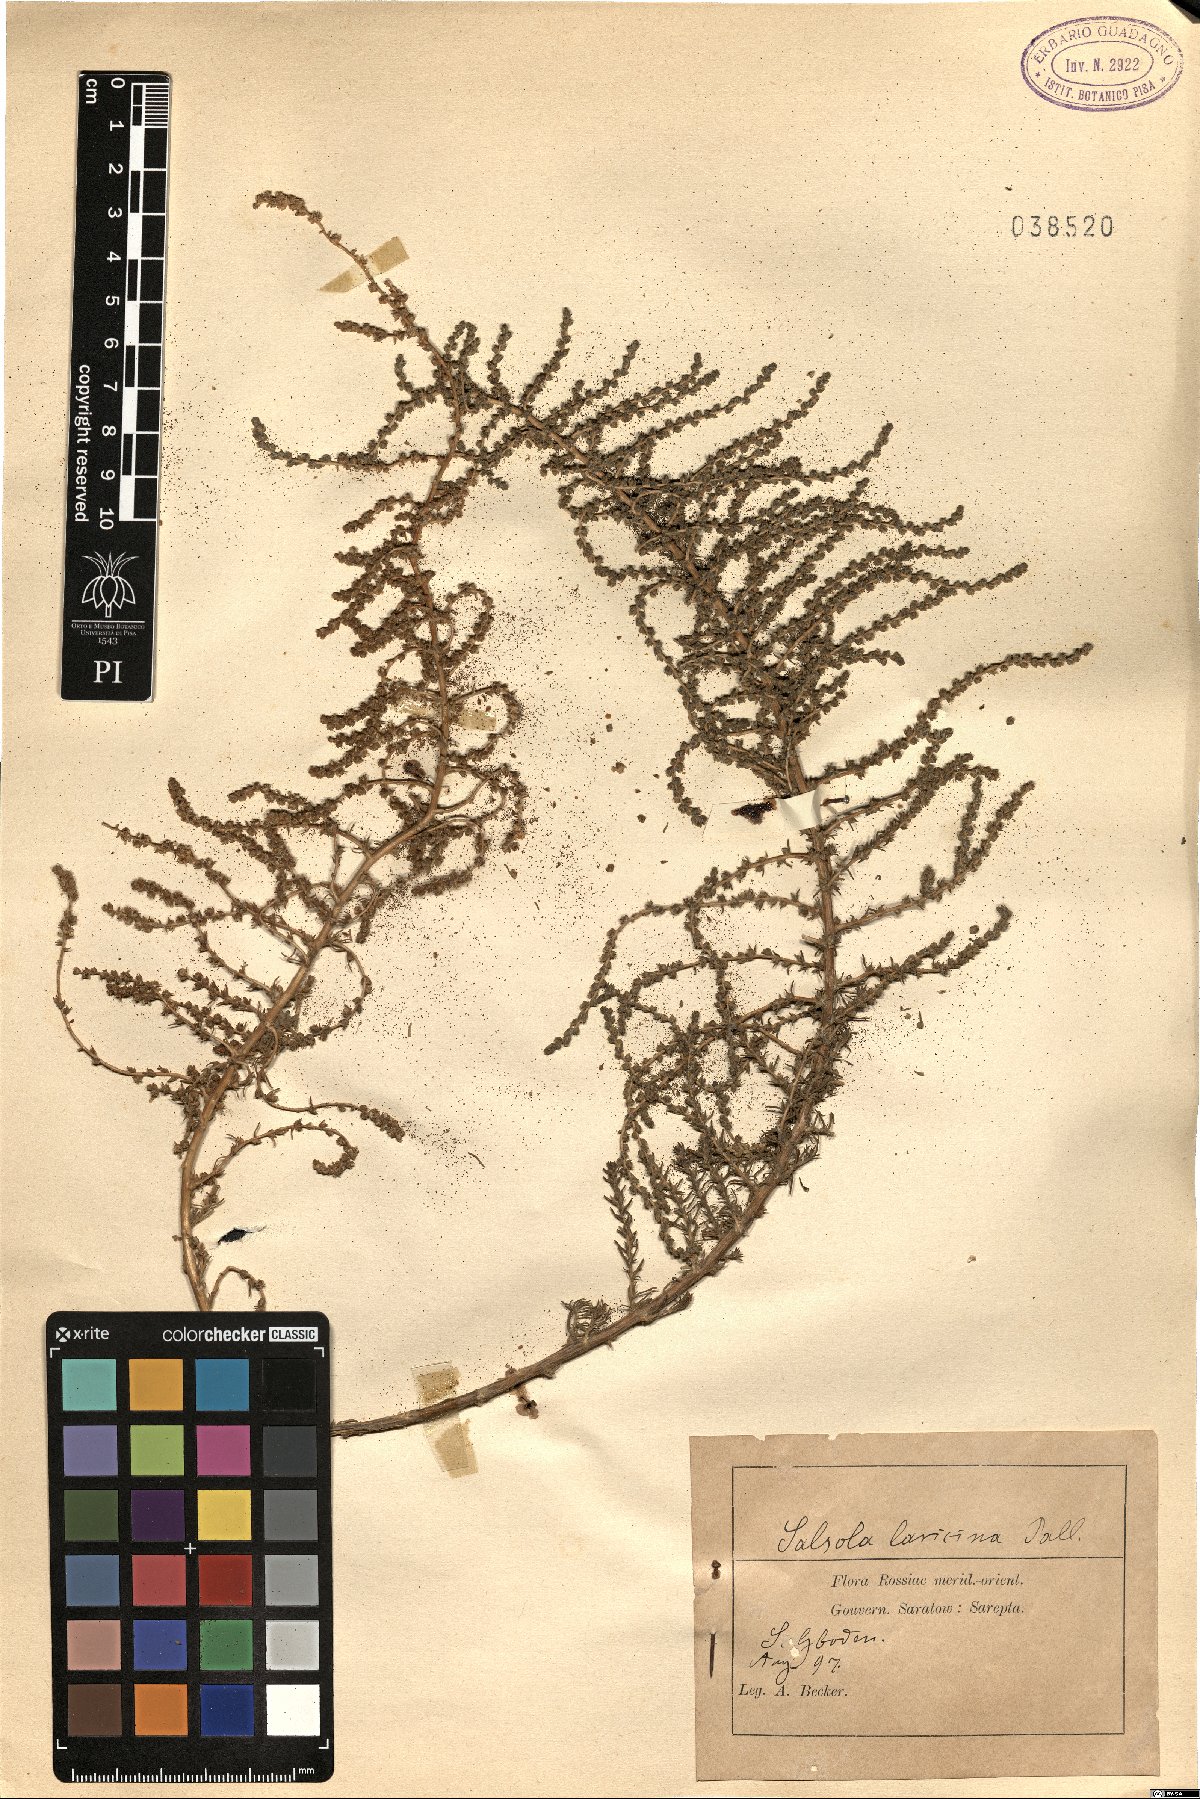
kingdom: Plantae
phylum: Tracheophyta
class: Magnoliopsida
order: Caryophyllales
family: Amaranthaceae
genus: Nitrosalsola
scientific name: Nitrosalsola laricina
